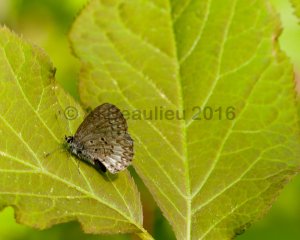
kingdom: Animalia
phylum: Arthropoda
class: Insecta
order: Lepidoptera
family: Lycaenidae
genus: Celastrina
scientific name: Celastrina lucia
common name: Northern Spring Azure
